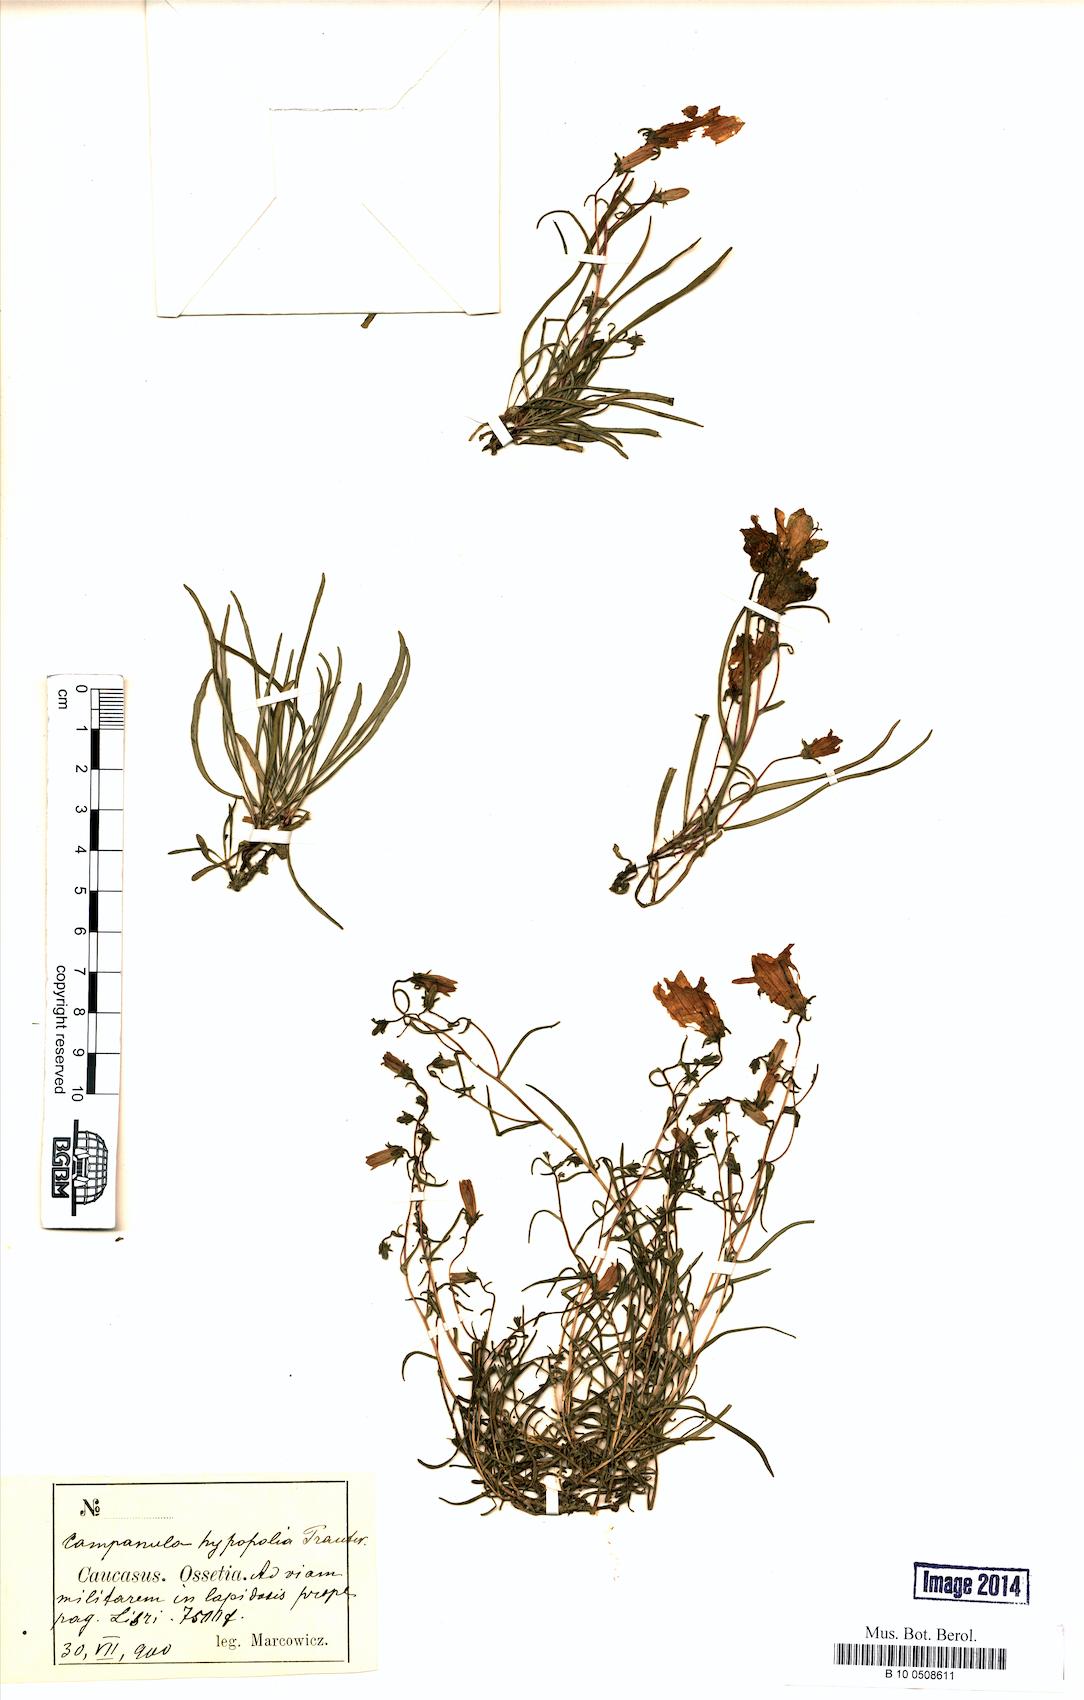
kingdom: Plantae
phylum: Tracheophyta
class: Magnoliopsida
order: Asterales
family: Campanulaceae
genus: Campanula
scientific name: Campanula hypopolia
